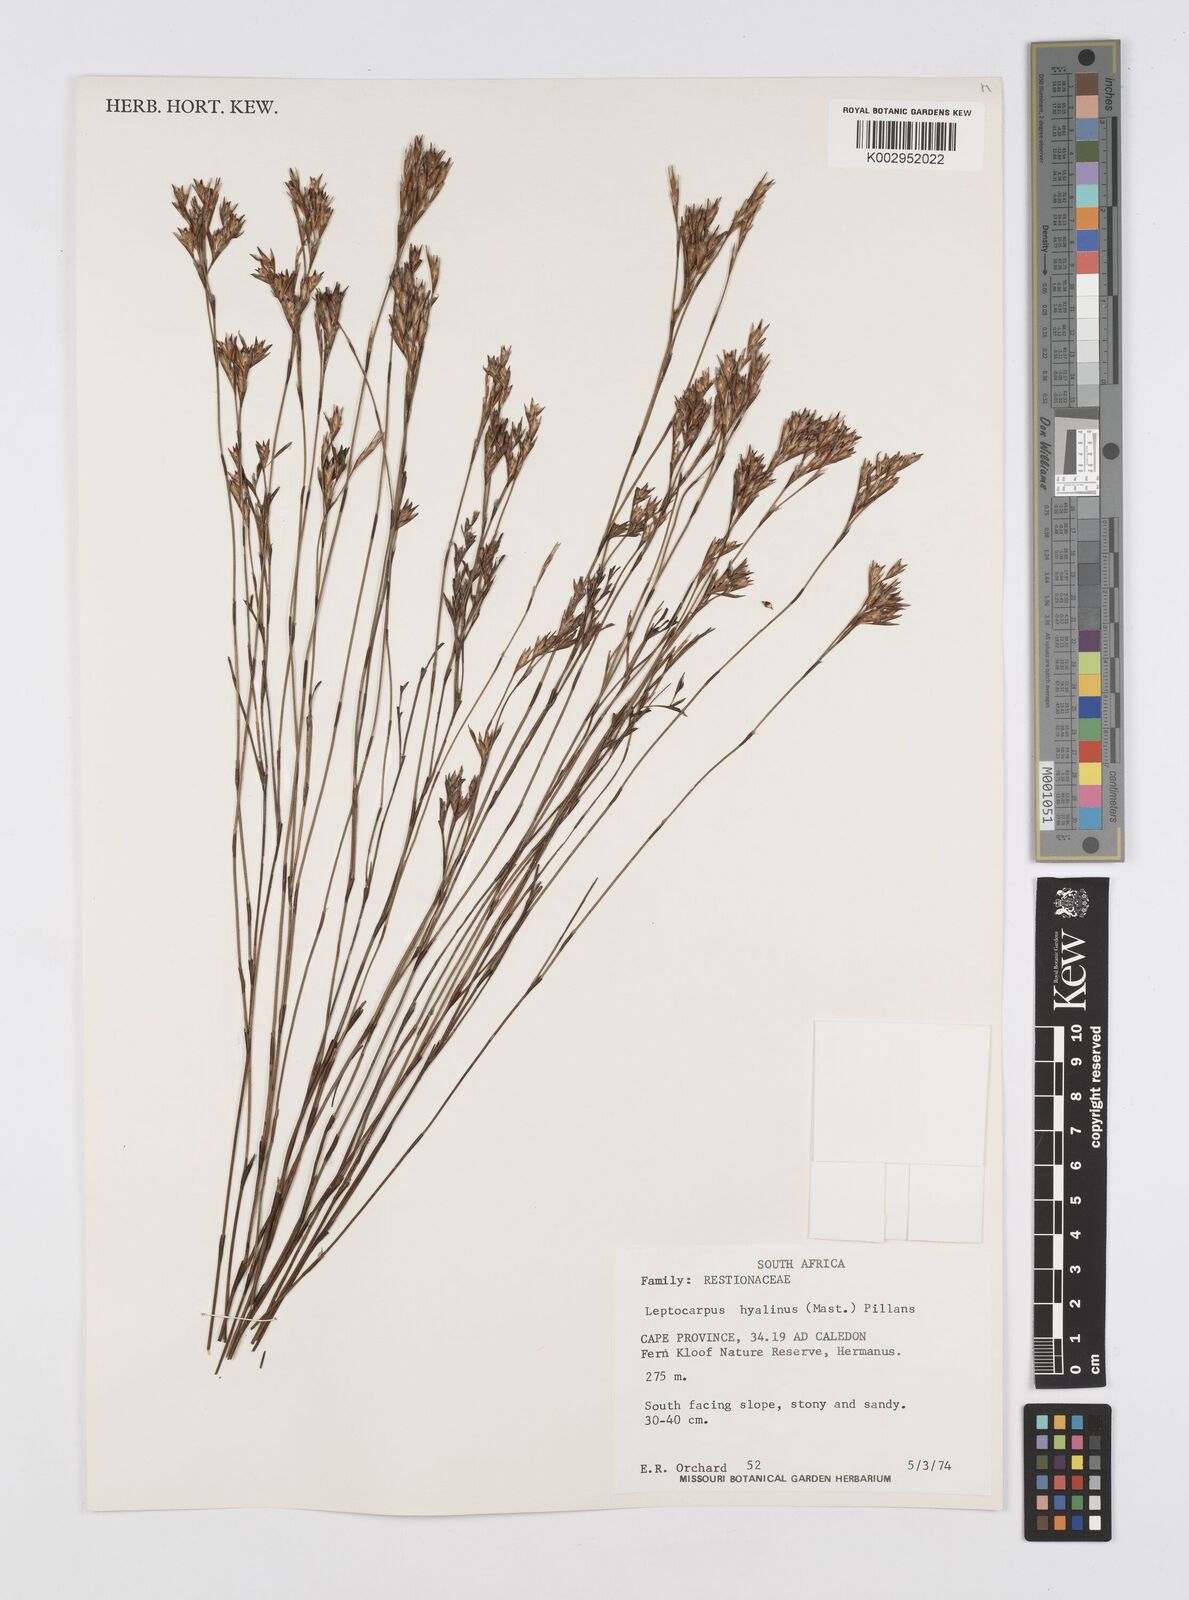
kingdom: Plantae
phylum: Tracheophyta
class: Liliopsida
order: Poales
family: Restionaceae
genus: Restio
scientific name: Restio hyalinus
